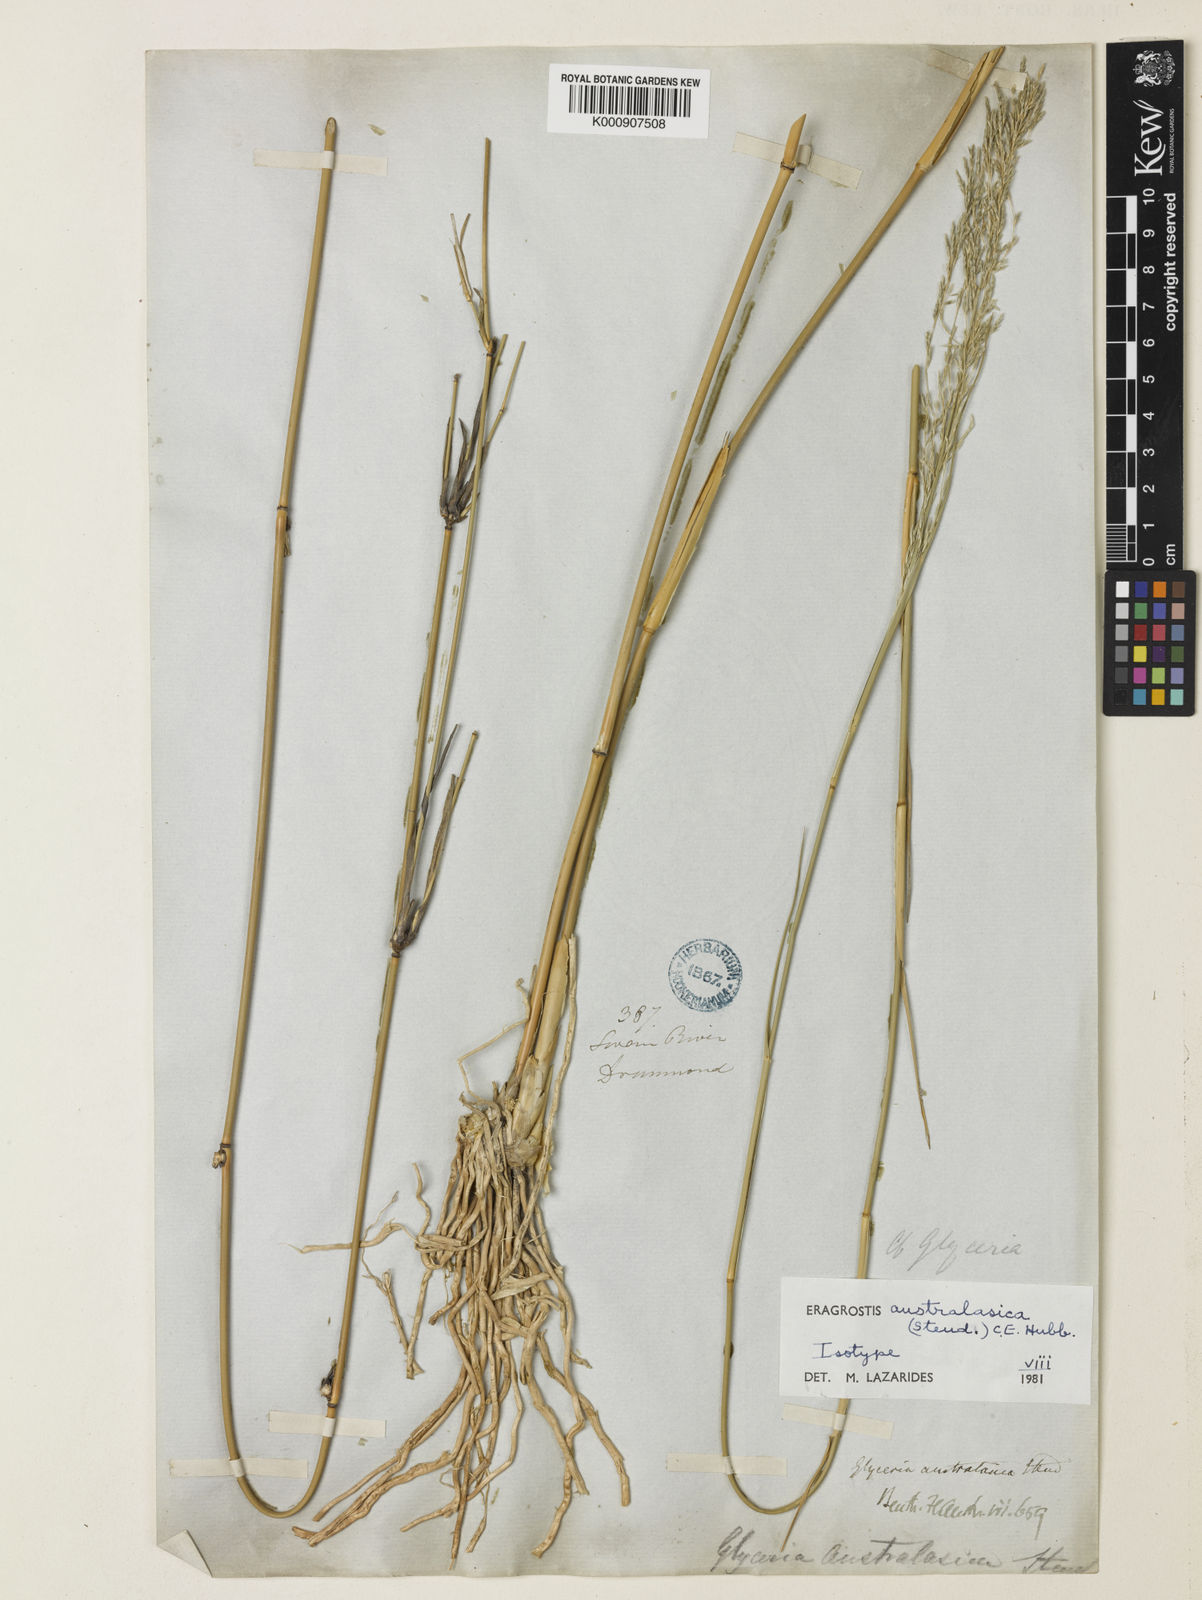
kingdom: Plantae
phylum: Tracheophyta
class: Liliopsida
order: Poales
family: Poaceae
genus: Sporobolus
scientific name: Sporobolus ramigerus
